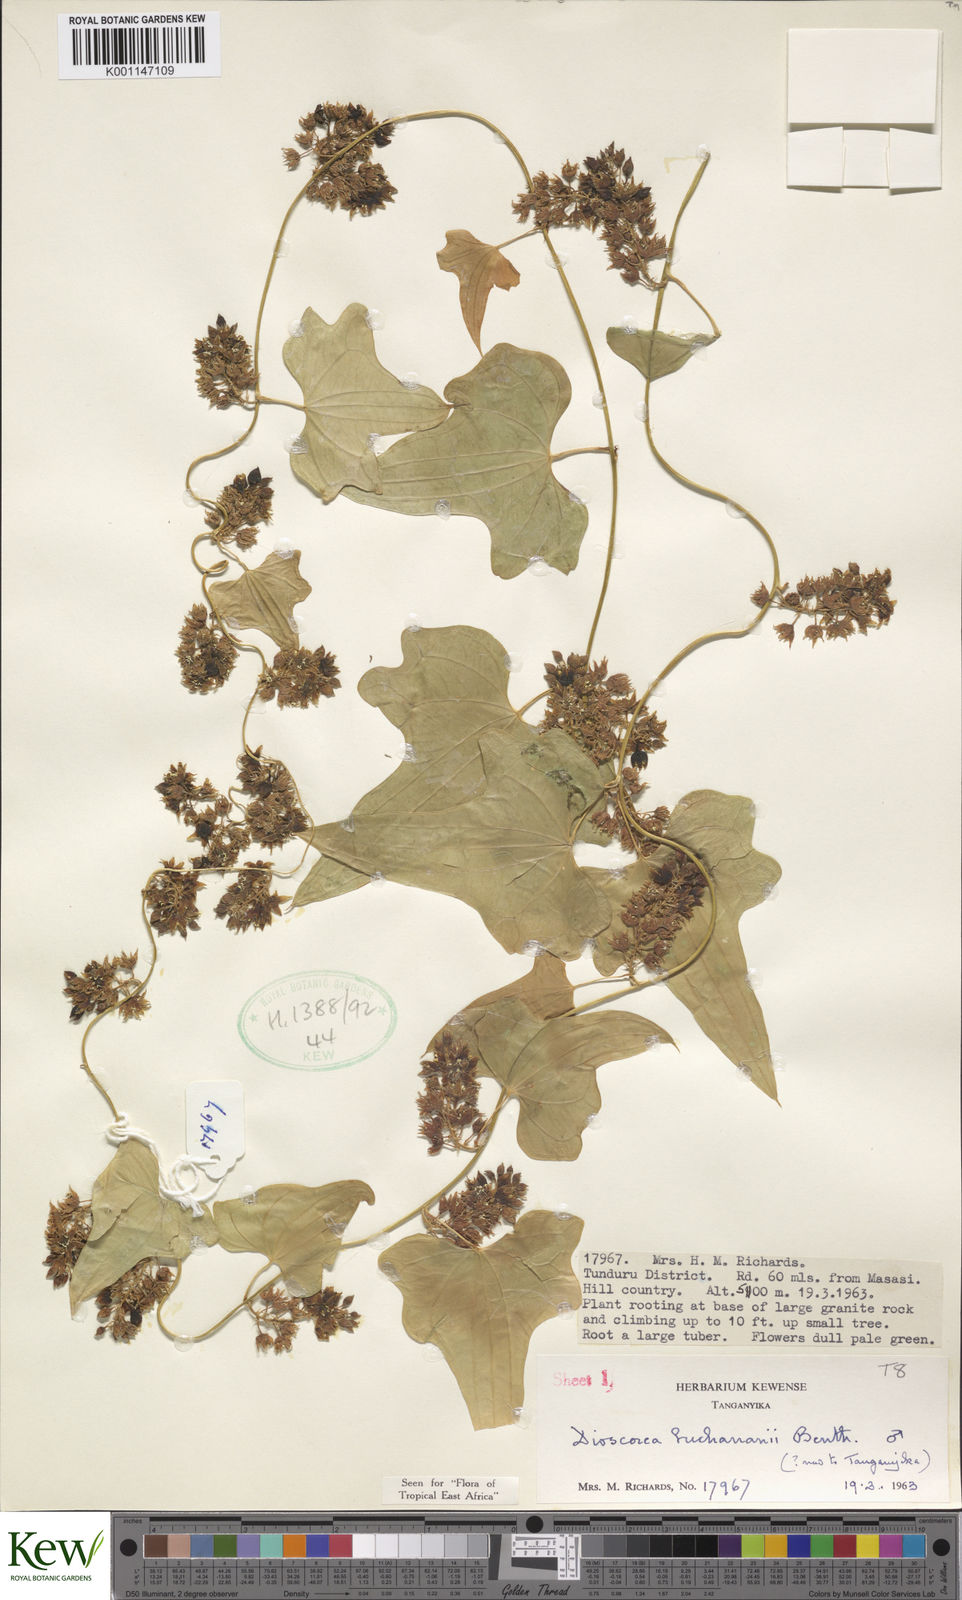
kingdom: Plantae
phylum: Tracheophyta
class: Liliopsida
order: Dioscoreales
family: Dioscoreaceae
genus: Dioscorea
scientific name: Dioscorea buchananii
